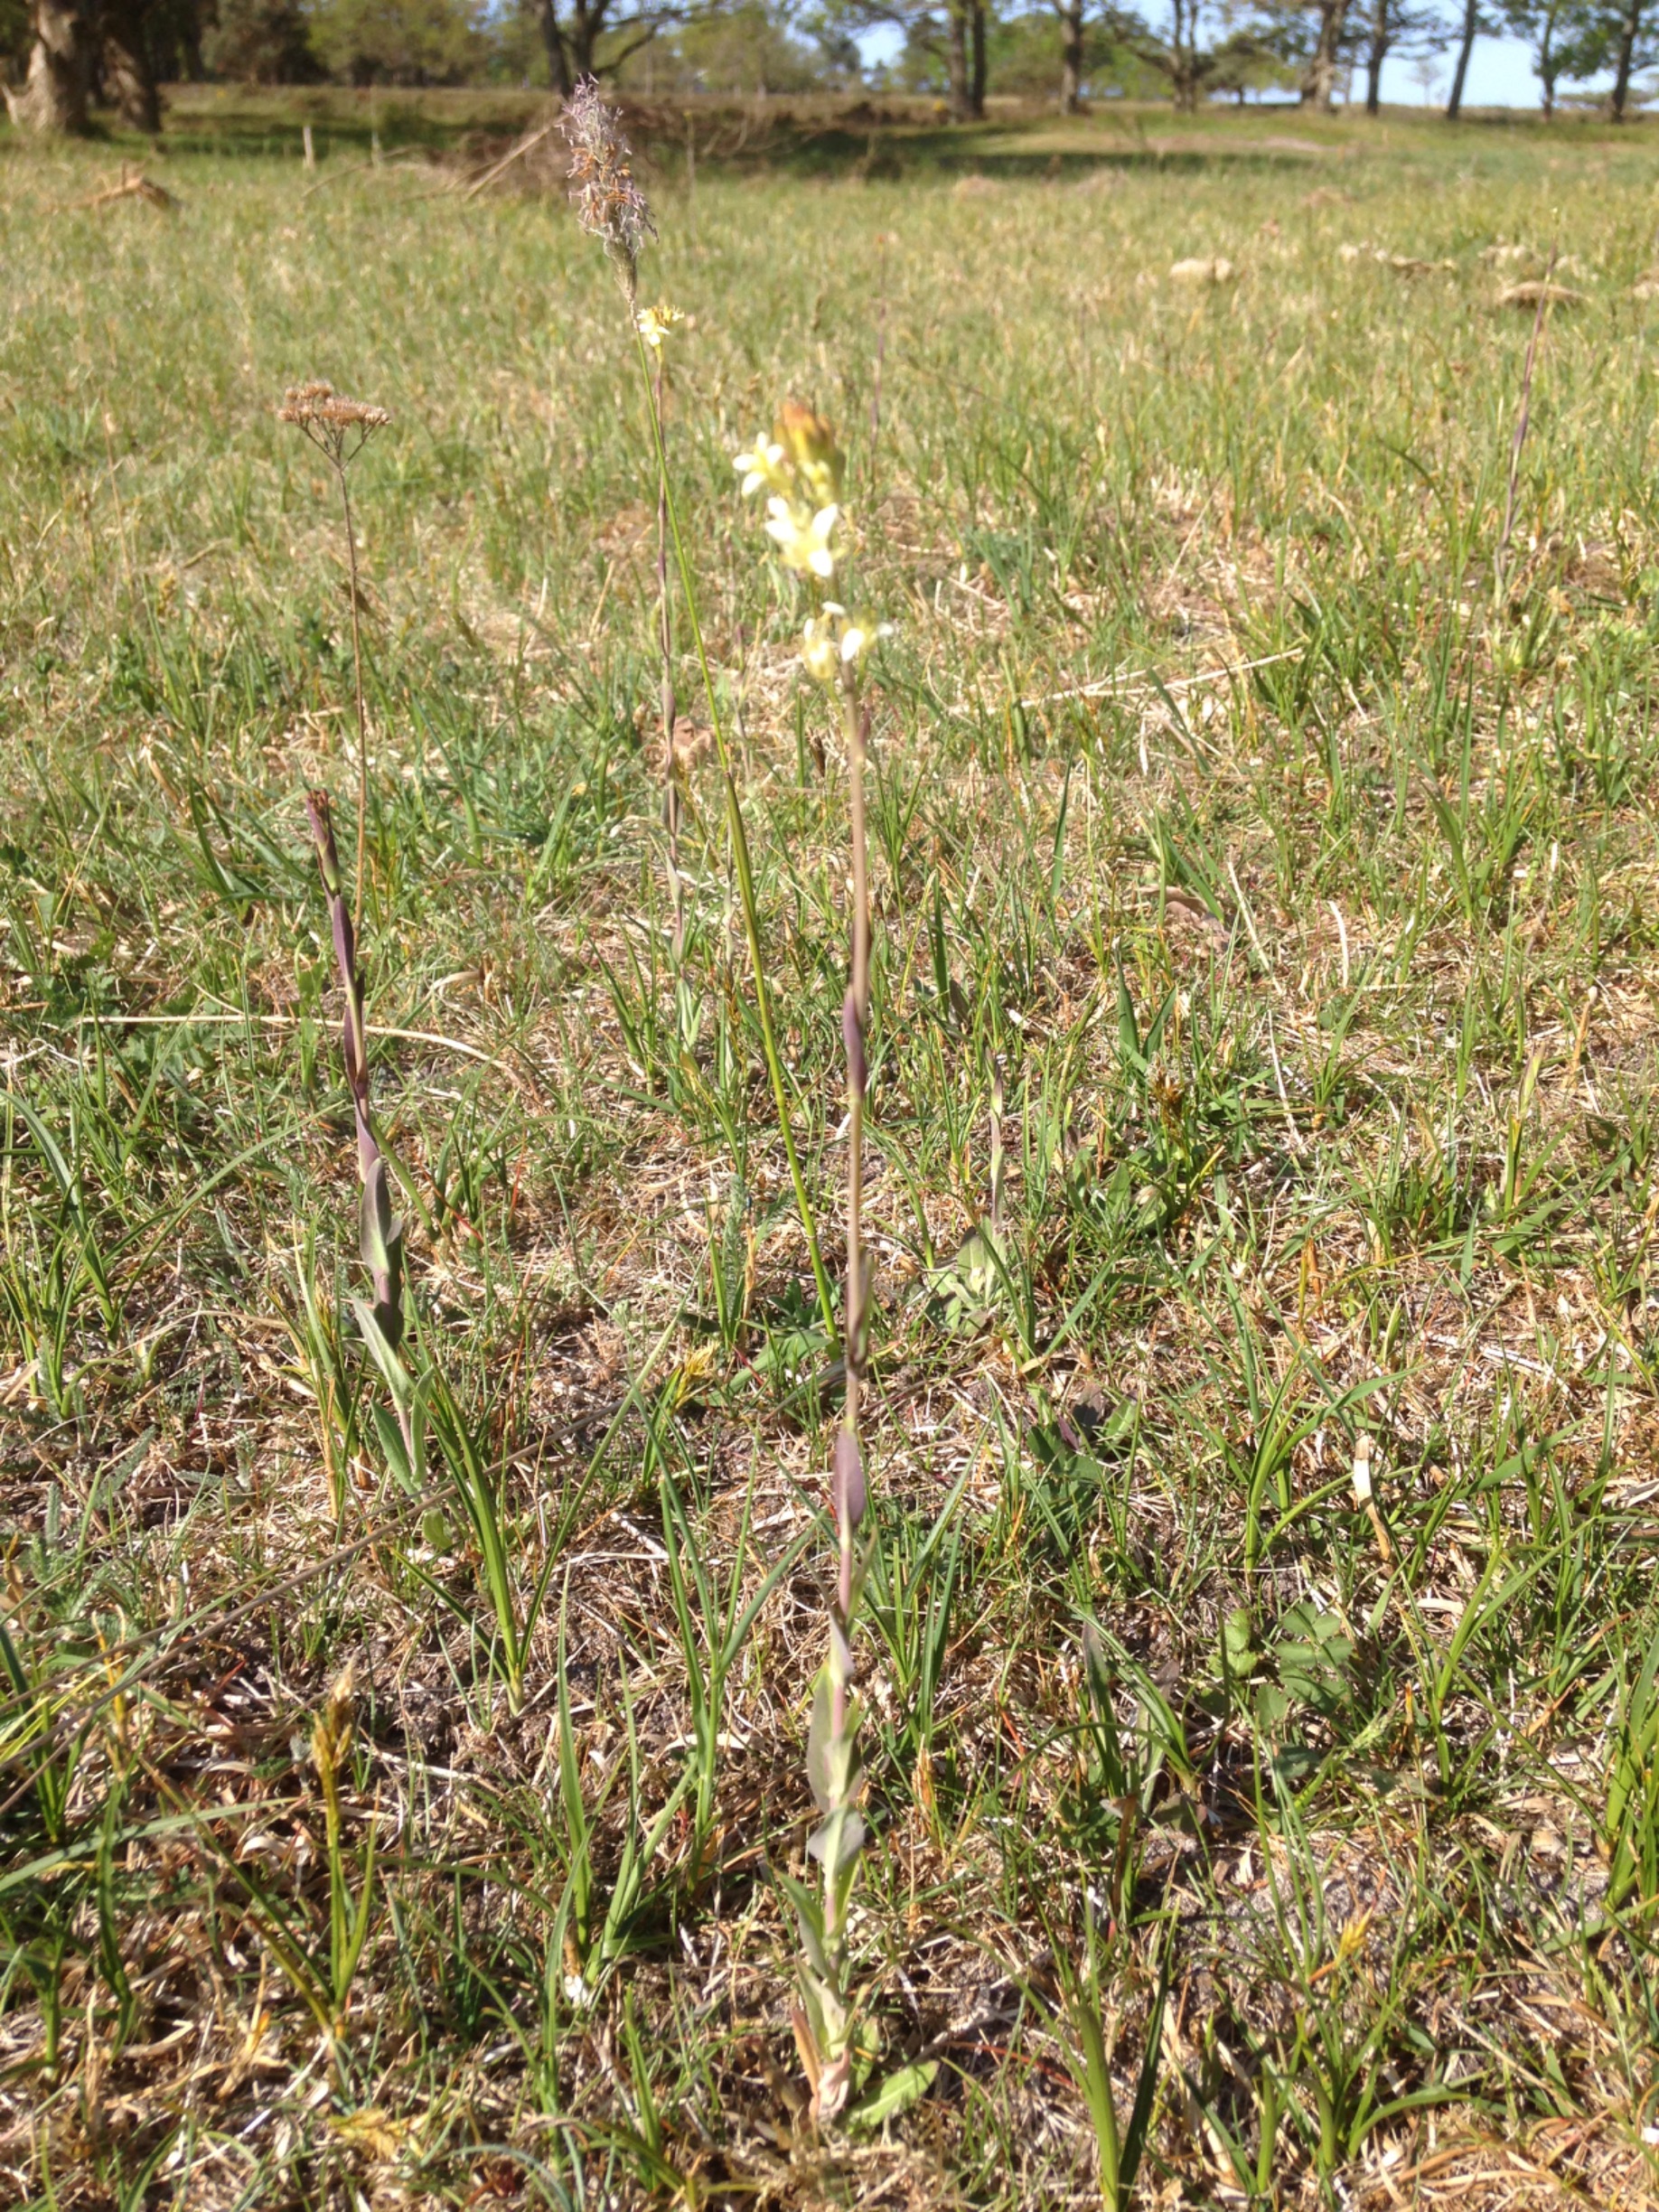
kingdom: Plantae
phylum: Tracheophyta
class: Magnoliopsida
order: Brassicales
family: Brassicaceae
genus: Turritis
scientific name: Turritis glabra
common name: Tårnurt
